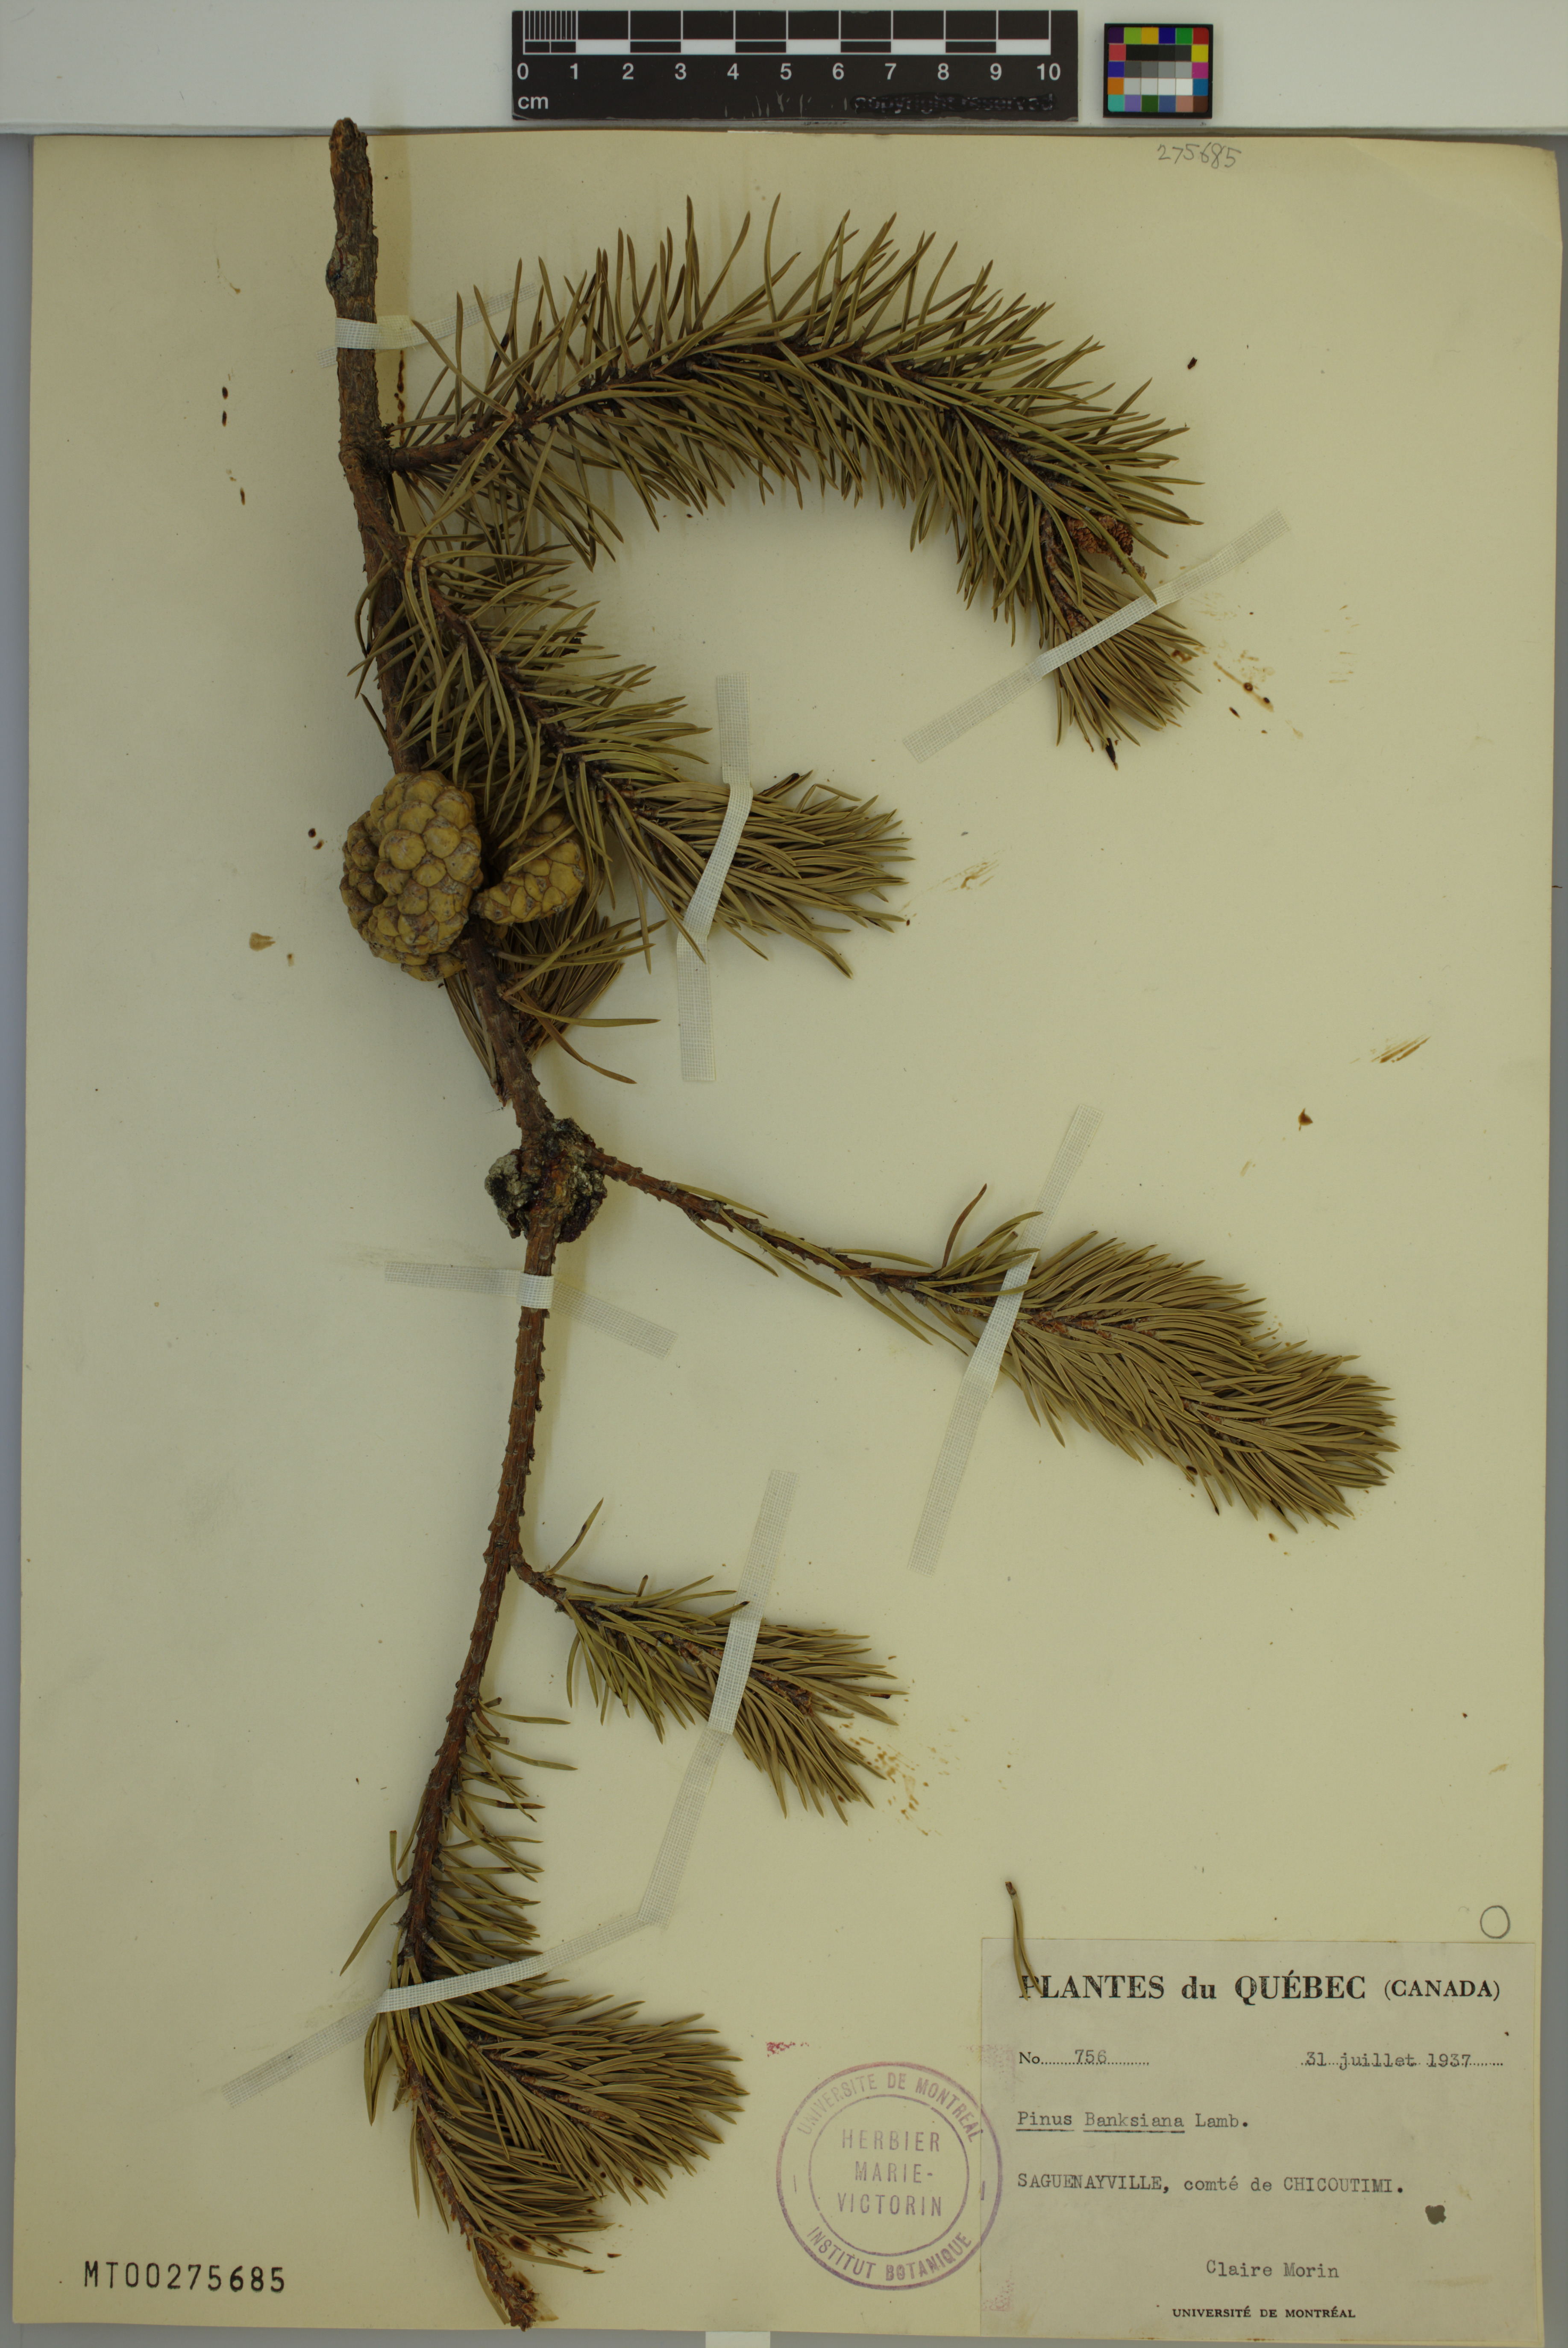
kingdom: Plantae
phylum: Tracheophyta
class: Pinopsida
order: Pinales
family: Pinaceae
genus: Pinus
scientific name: Pinus banksiana
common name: Jack pine
